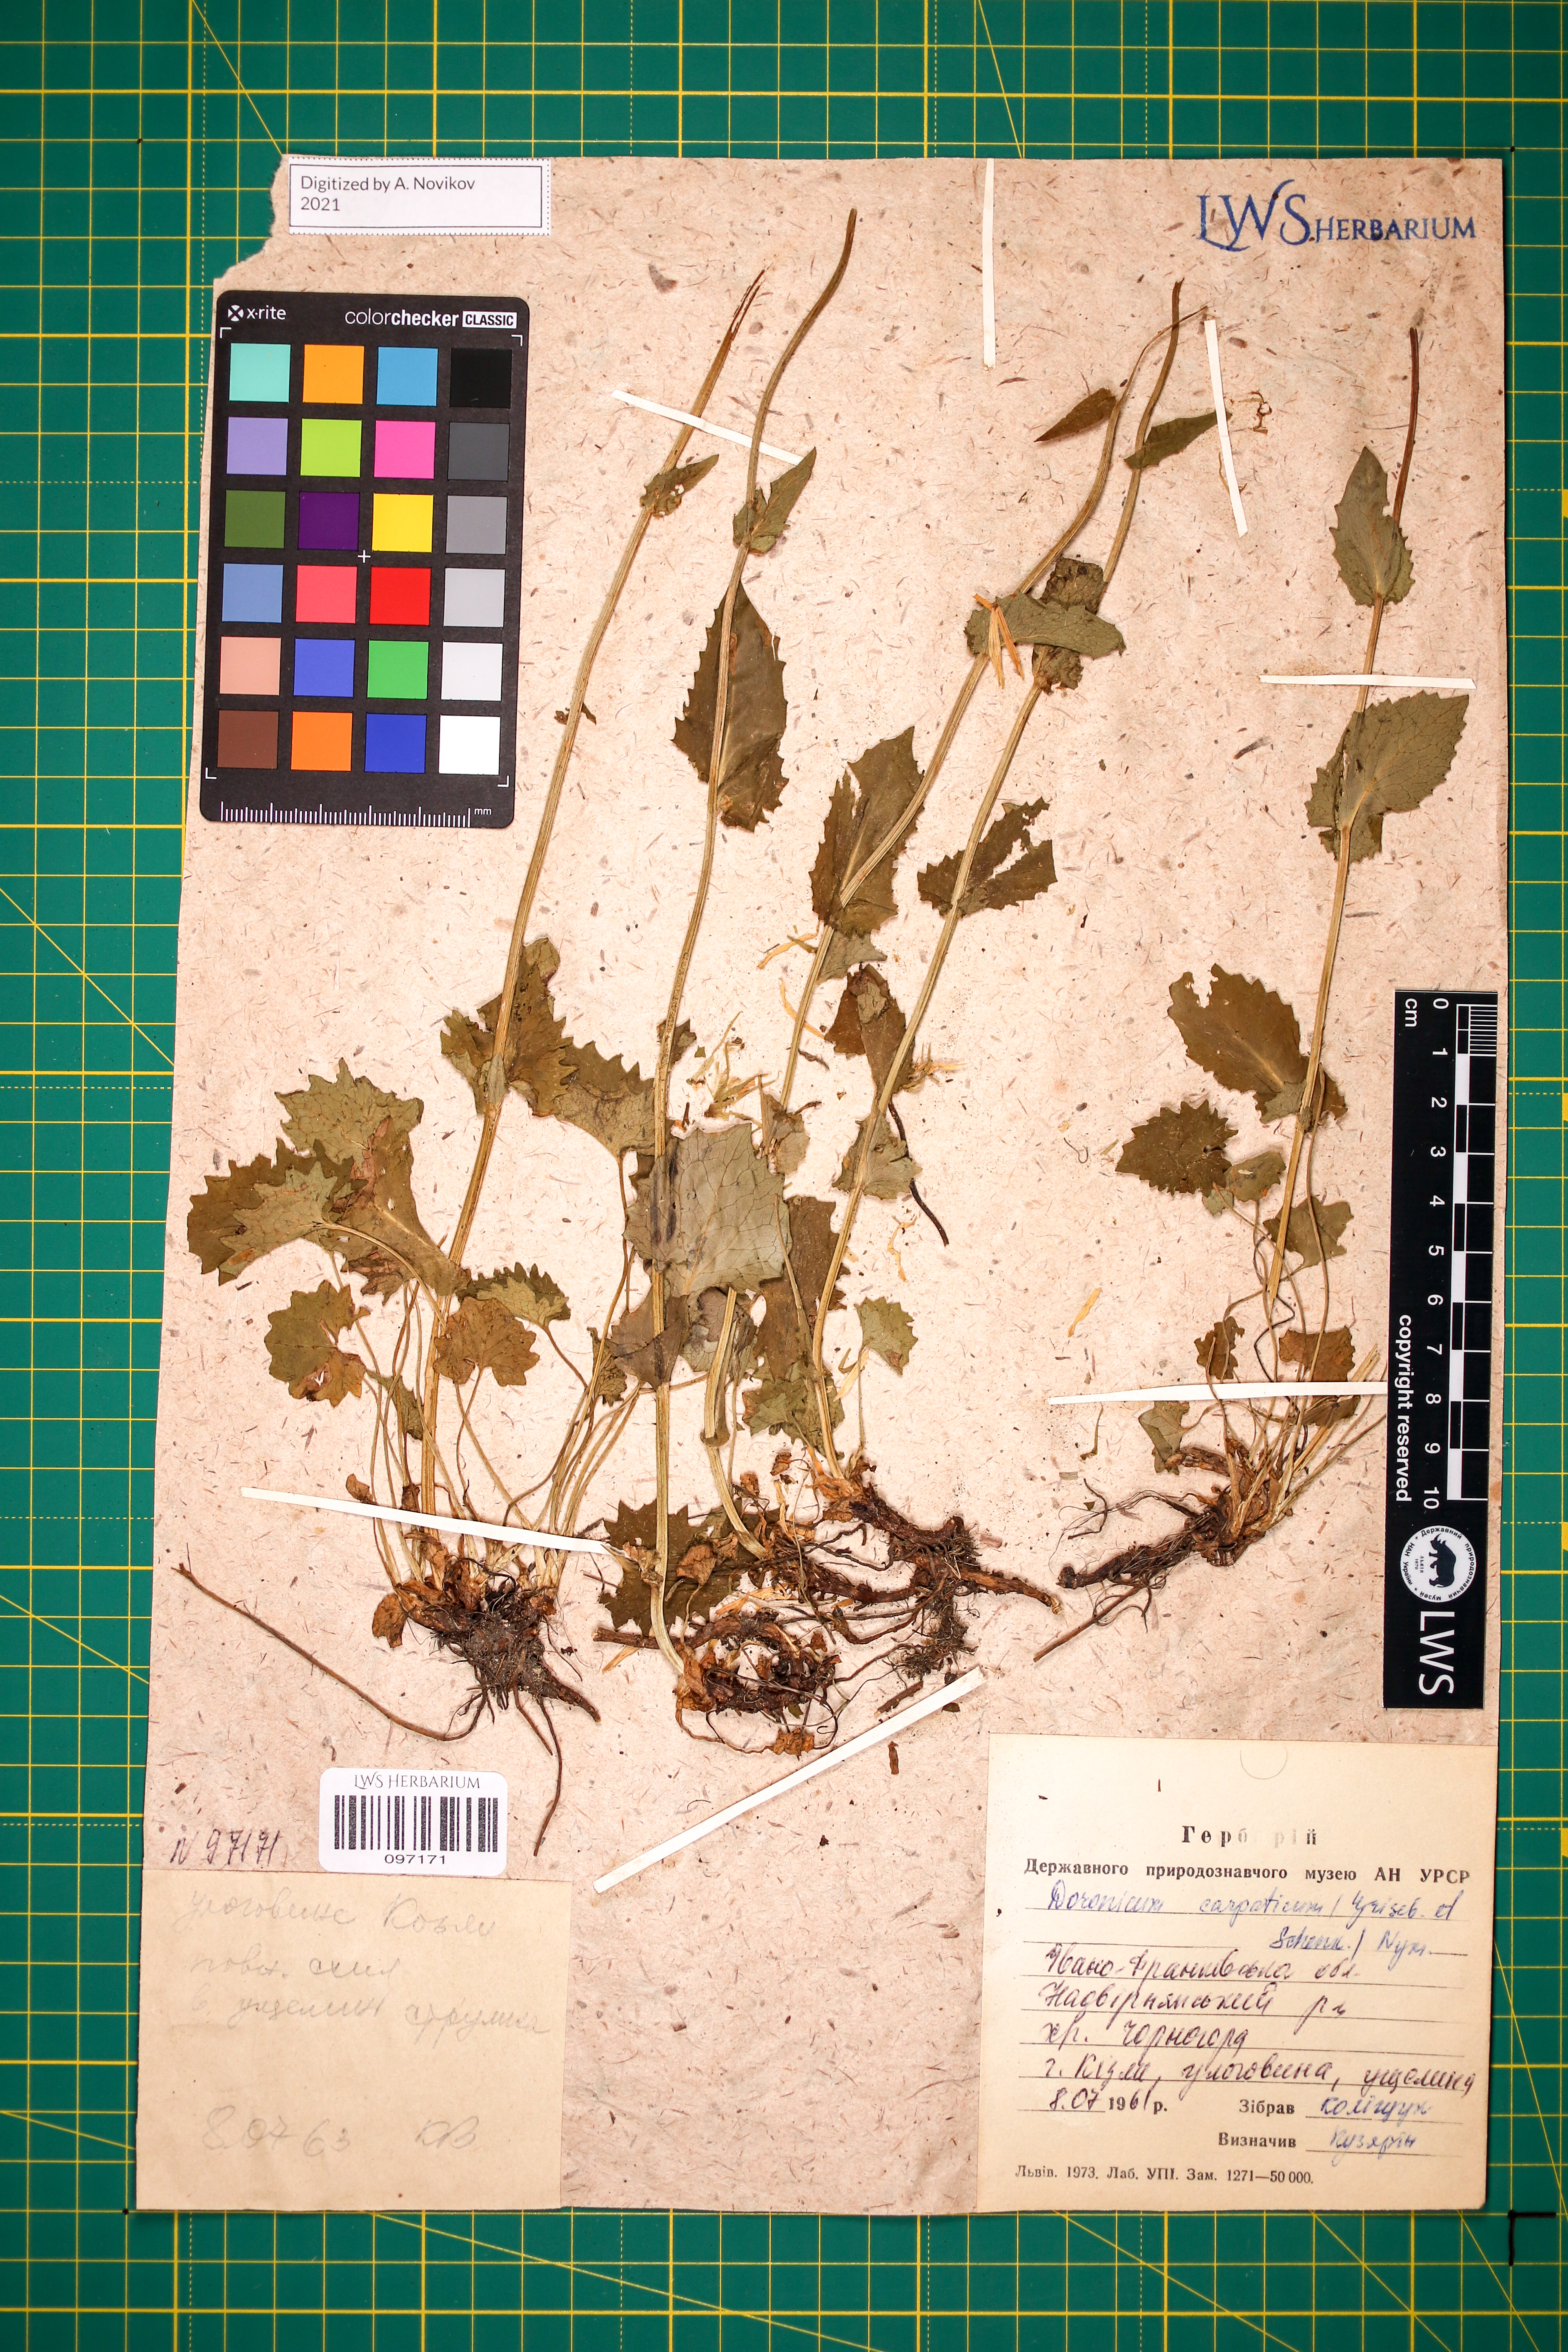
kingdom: Plantae
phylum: Tracheophyta
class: Magnoliopsida
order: Asterales
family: Asteraceae
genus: Doronicum
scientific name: Doronicum carpaticum
